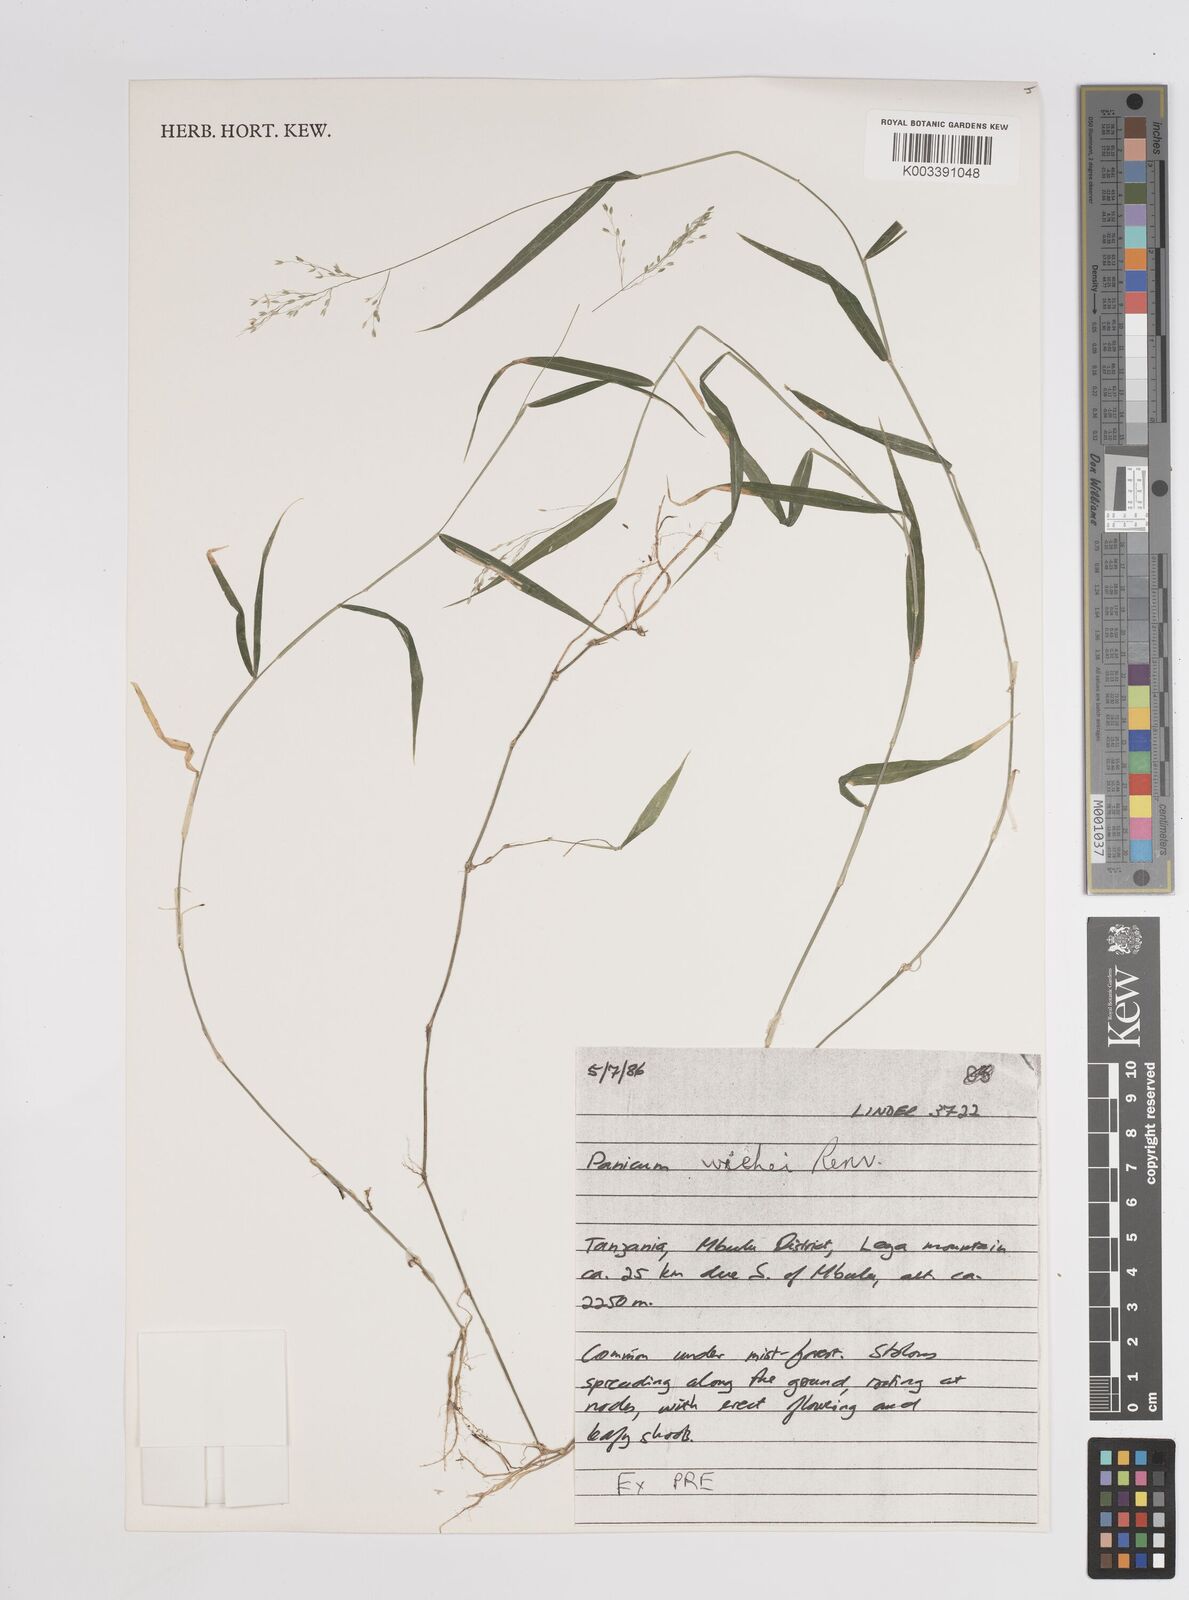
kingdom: Plantae
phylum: Tracheophyta
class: Liliopsida
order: Poales
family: Poaceae
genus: Panicum
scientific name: Panicum wiehei
